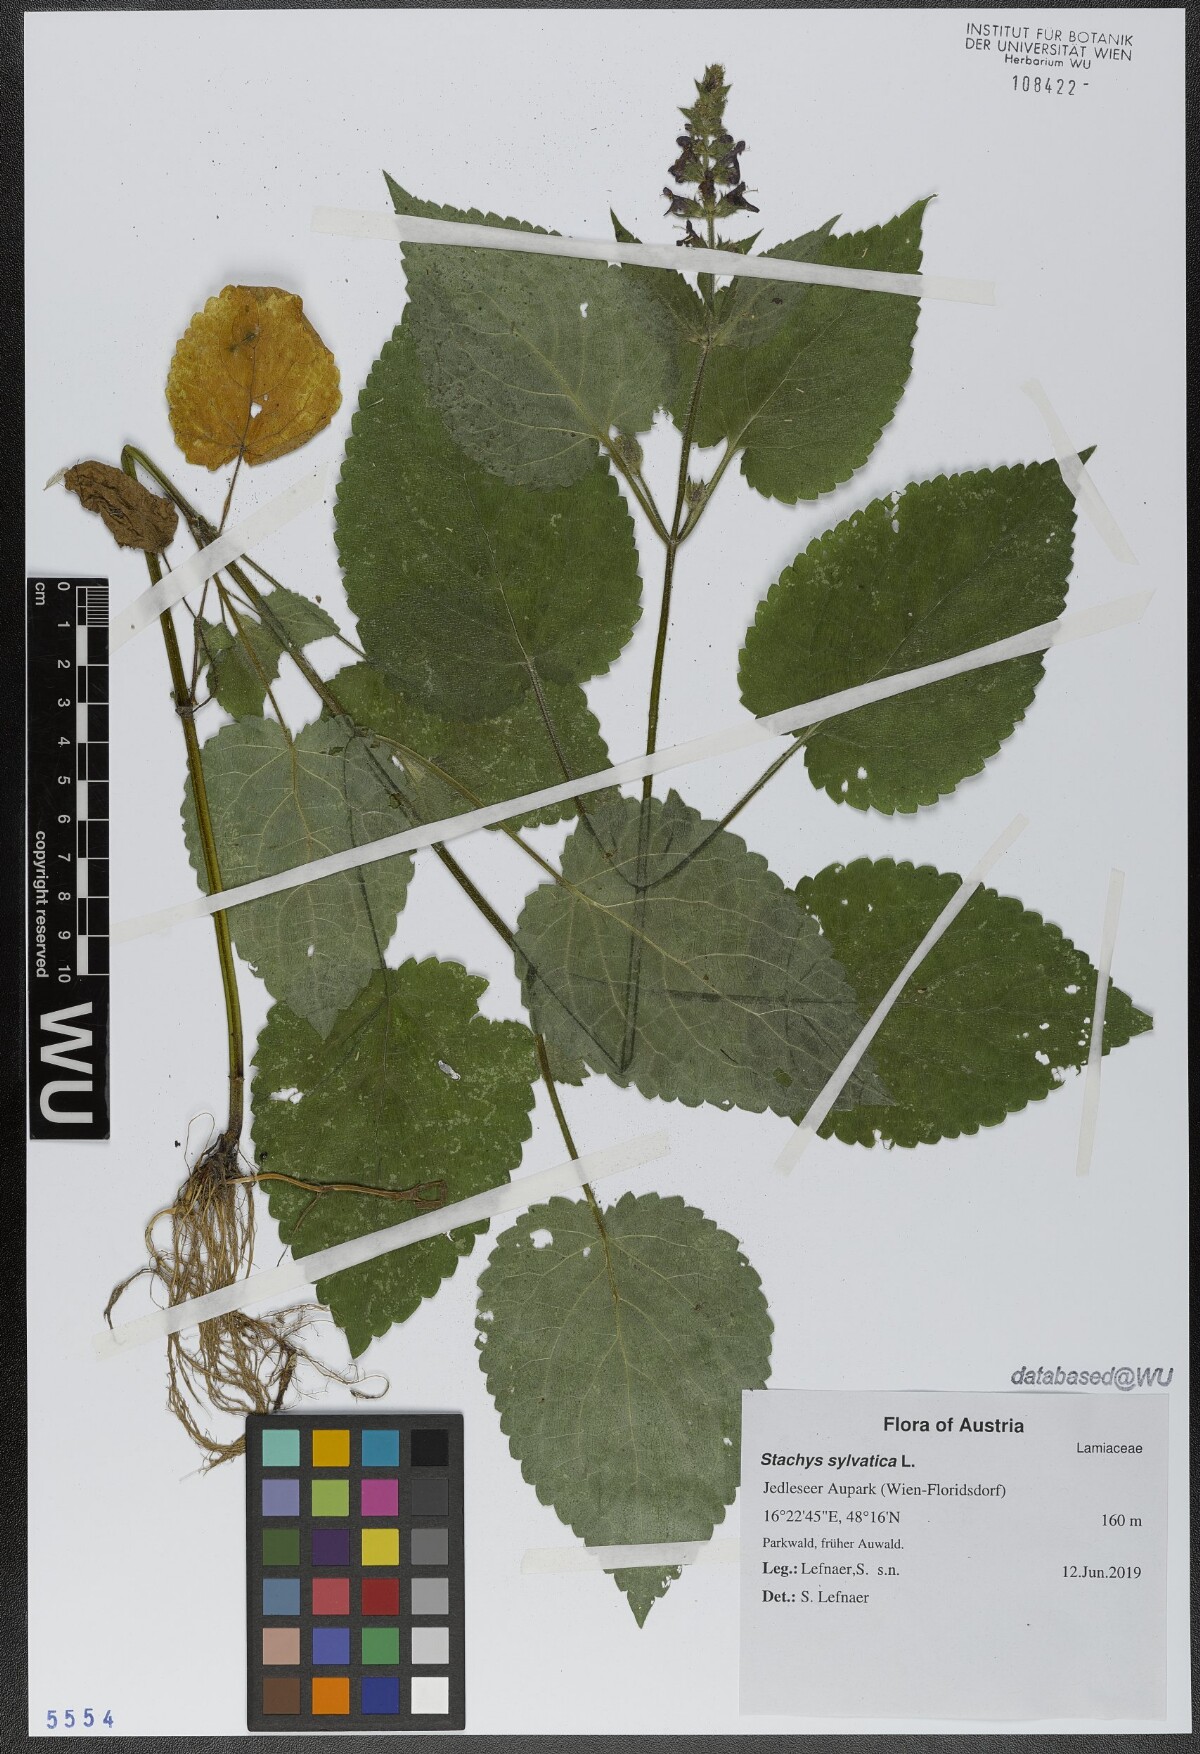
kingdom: Plantae
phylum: Tracheophyta
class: Magnoliopsida
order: Lamiales
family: Lamiaceae
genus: Stachys
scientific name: Stachys sylvatica
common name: Hedge woundwort
